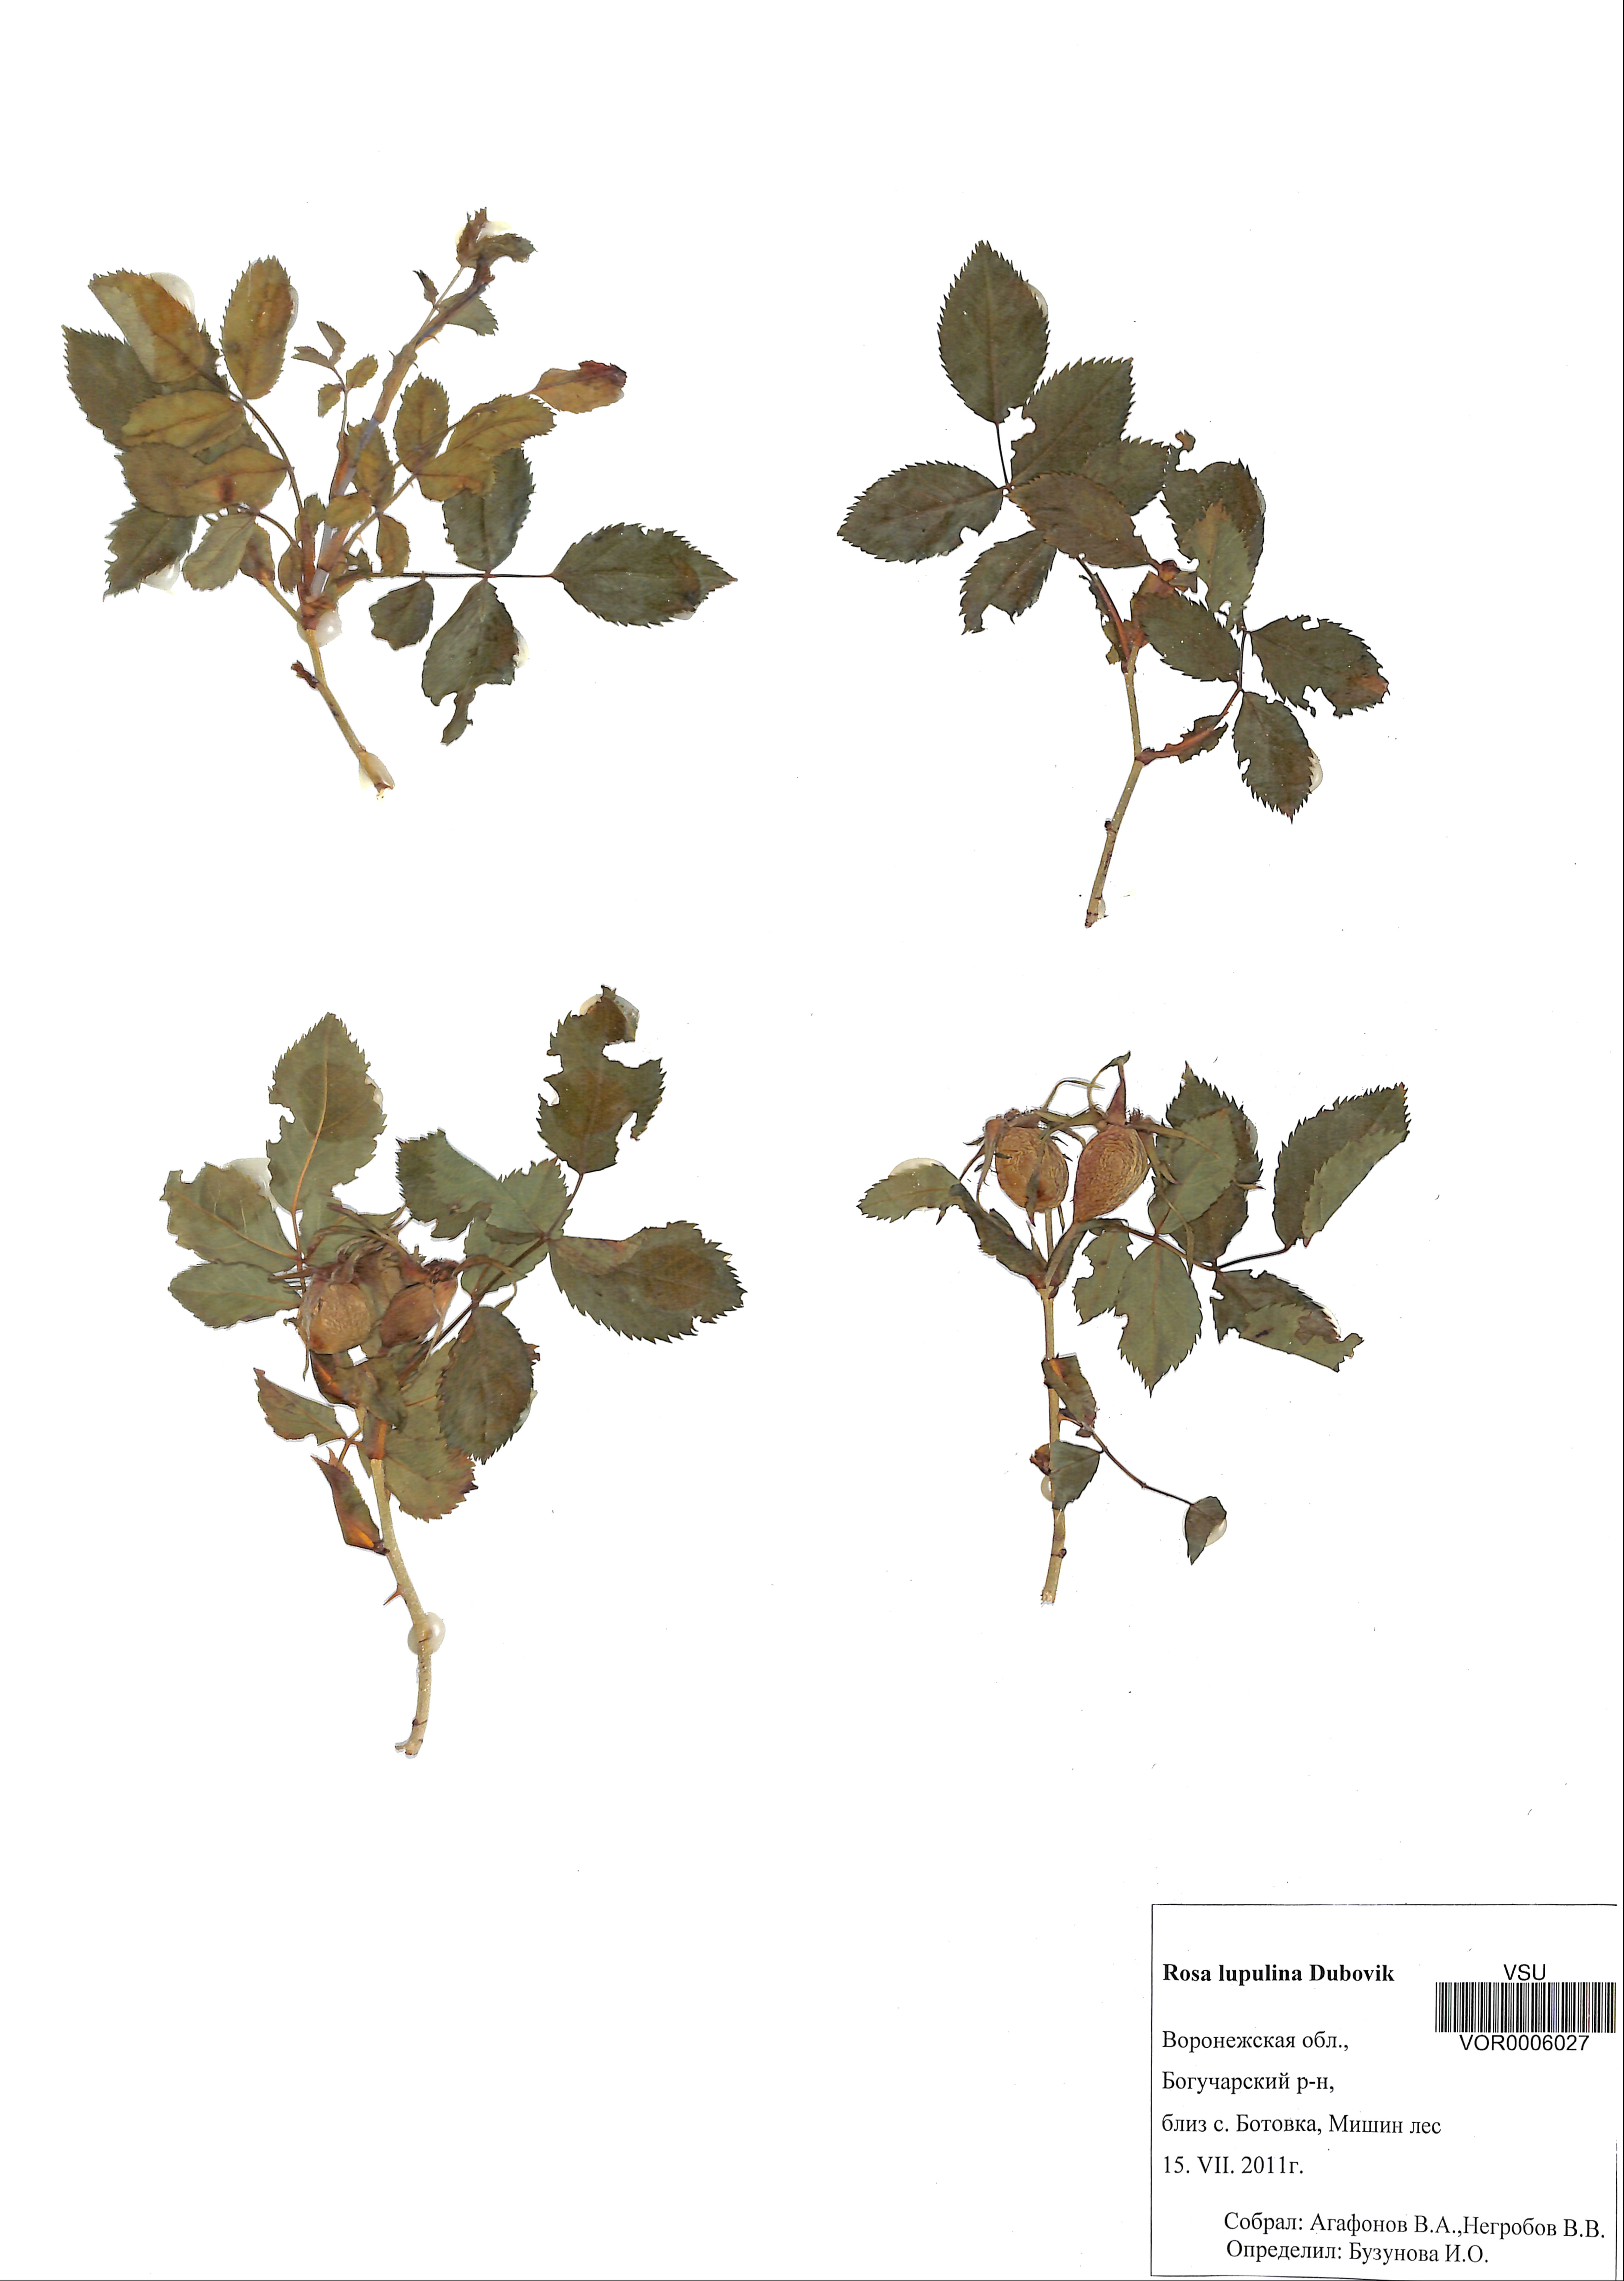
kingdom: Plantae
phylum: Tracheophyta
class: Magnoliopsida
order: Rosales
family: Rosaceae
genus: Rosa
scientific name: Rosa
